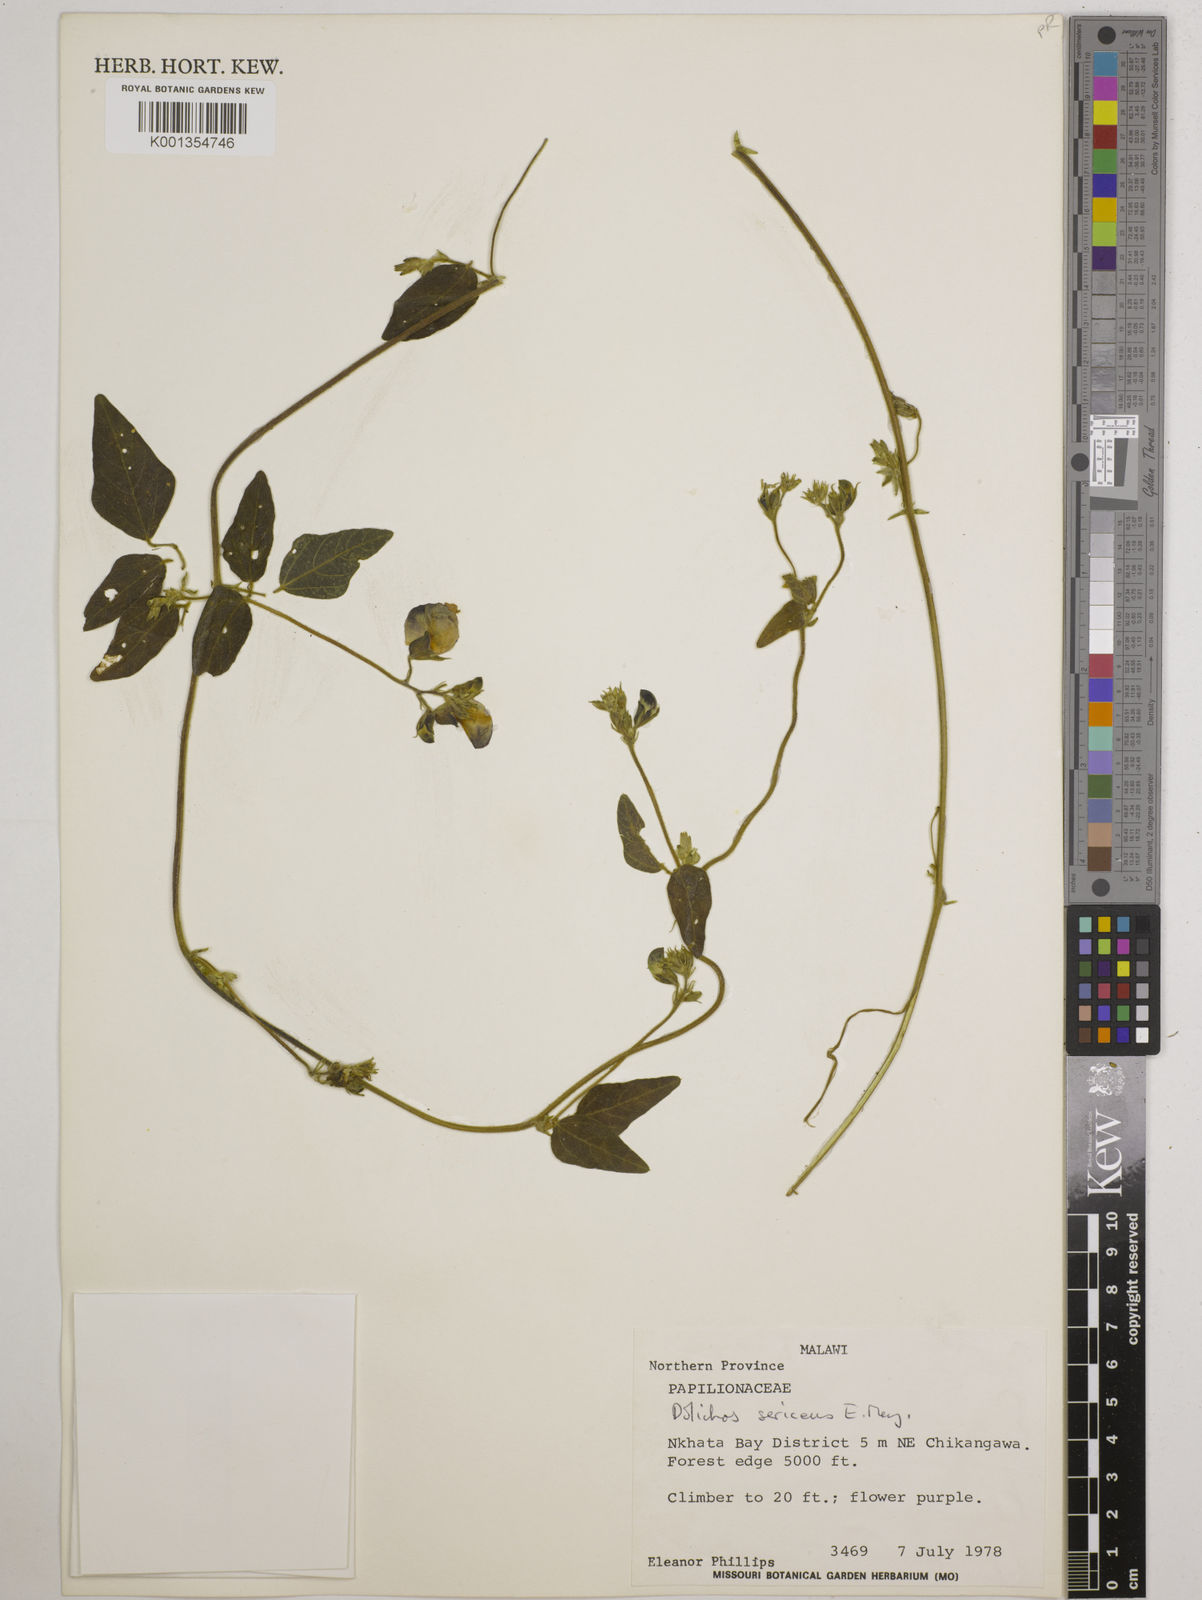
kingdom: Plantae
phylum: Tracheophyta
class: Magnoliopsida
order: Fabales
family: Fabaceae
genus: Dolichos
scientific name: Dolichos
